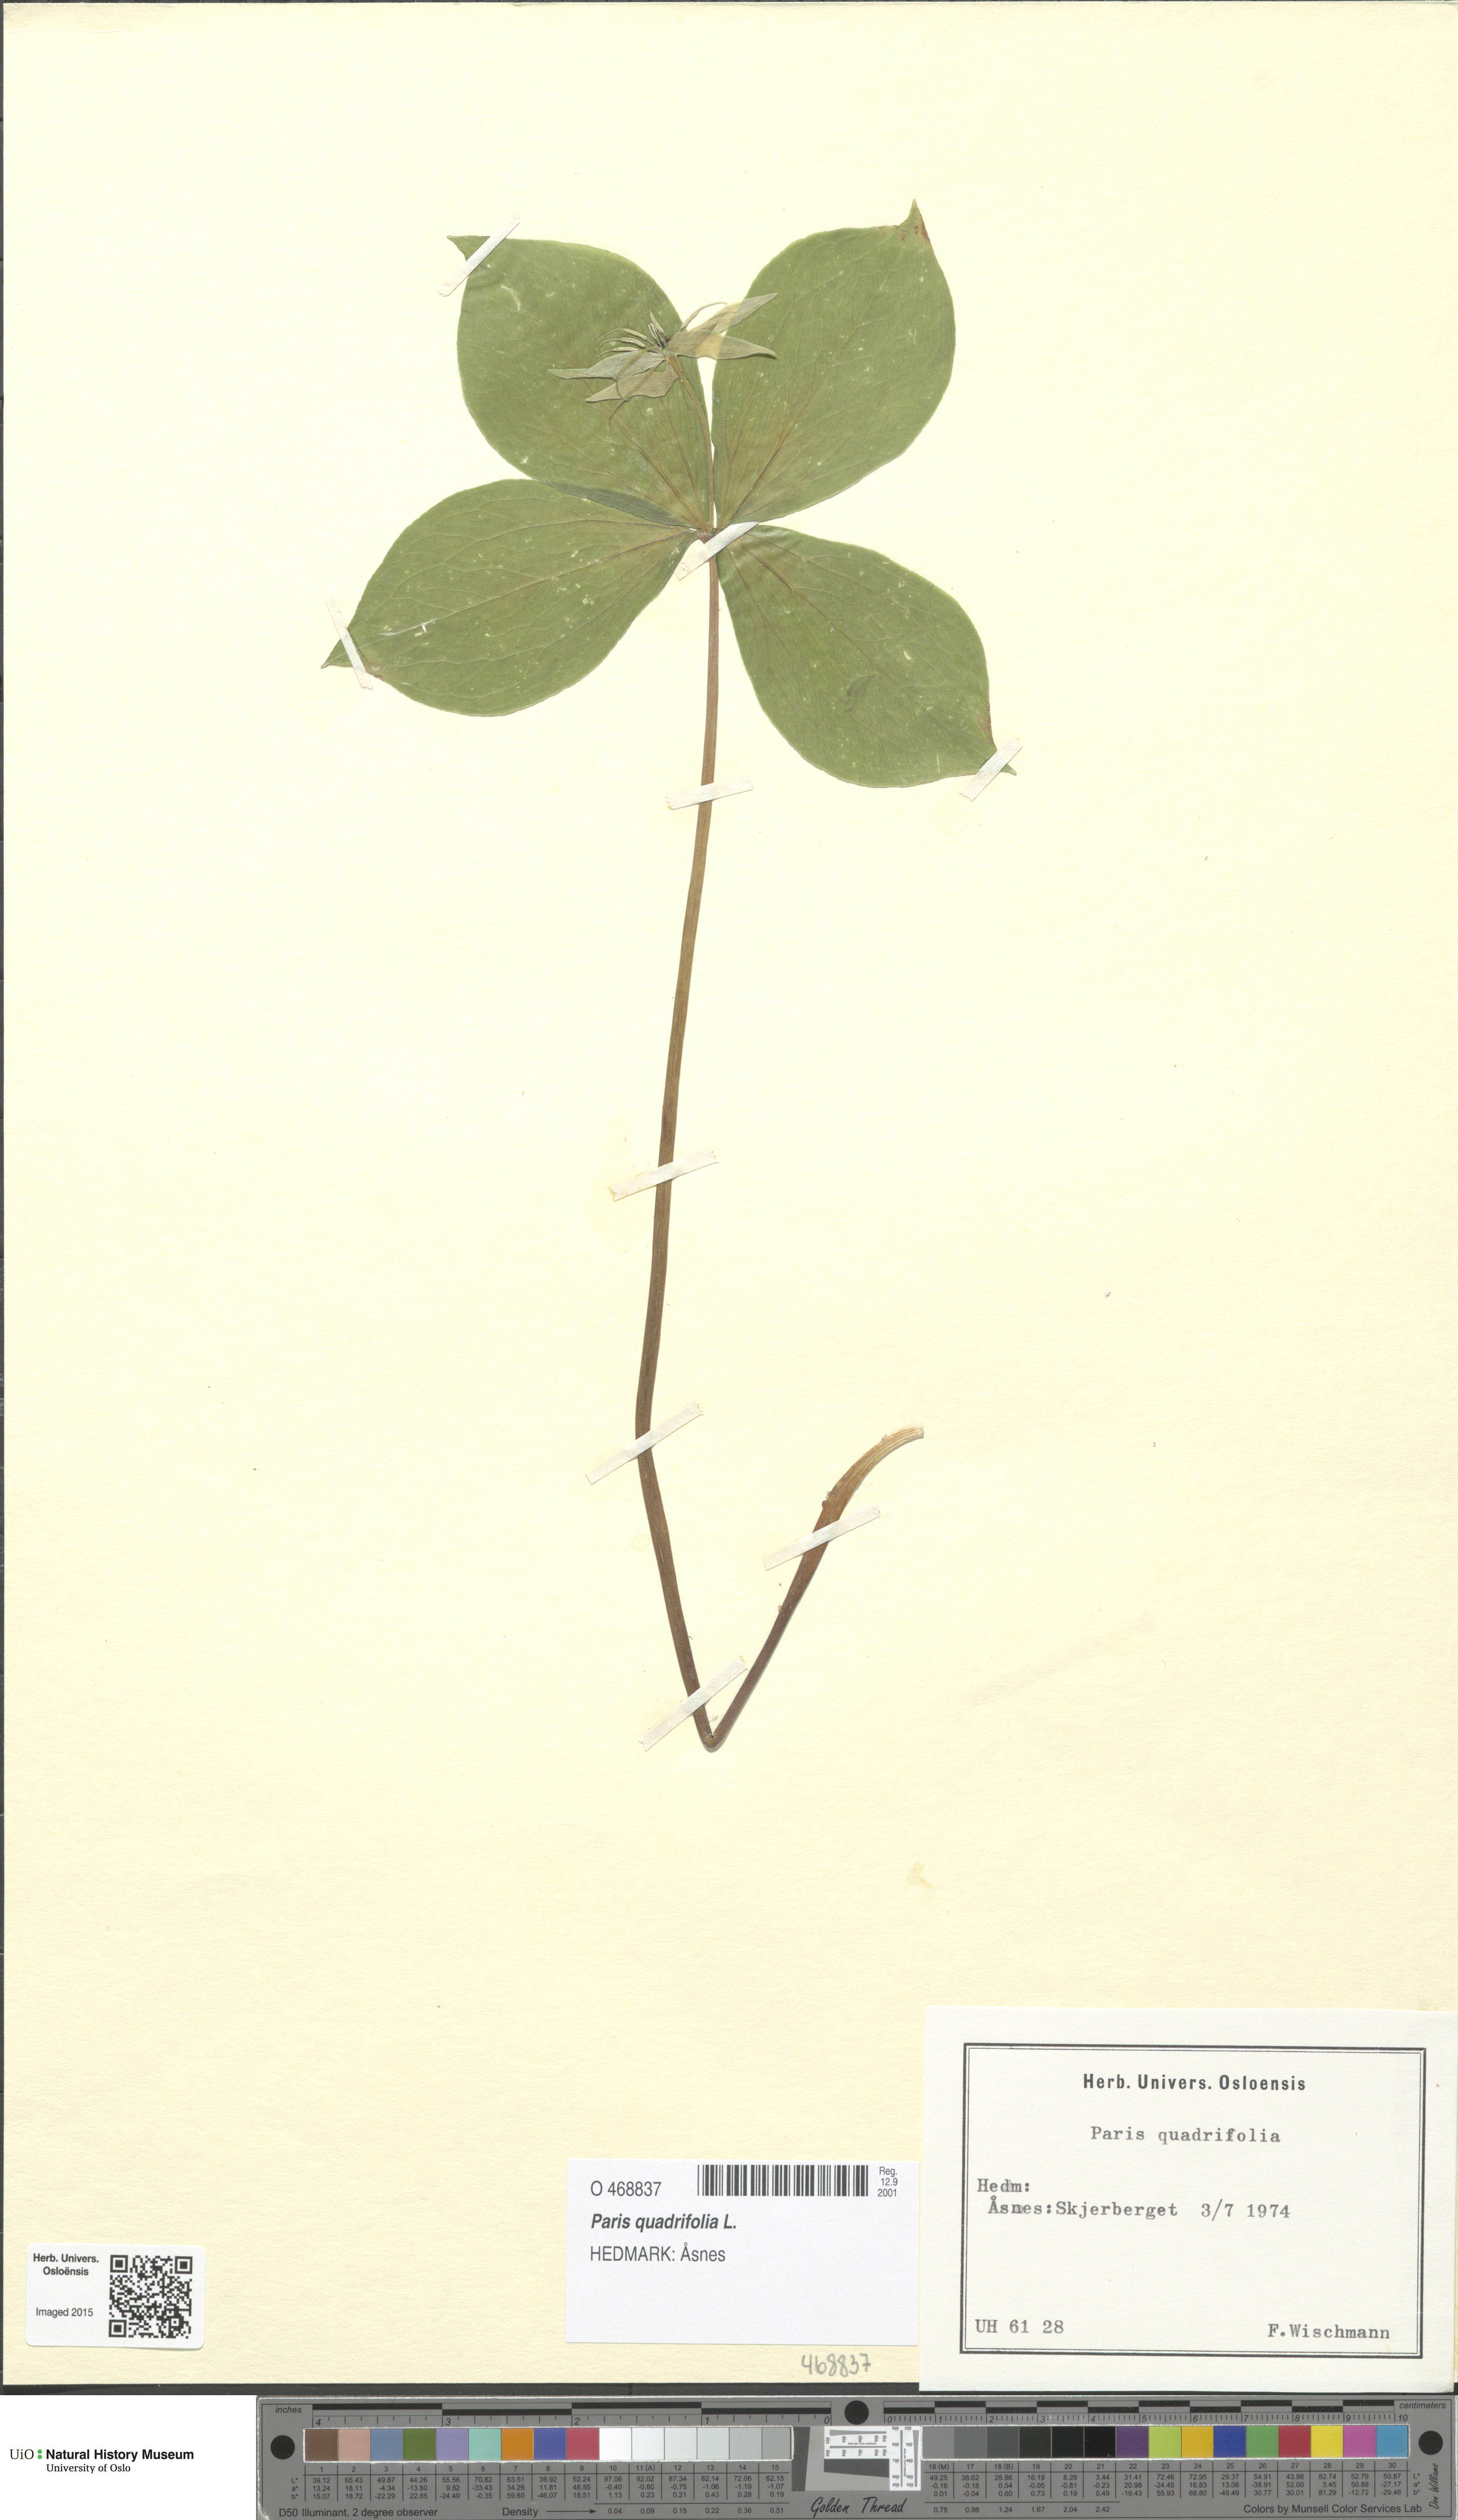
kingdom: Plantae
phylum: Tracheophyta
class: Liliopsida
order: Liliales
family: Melanthiaceae
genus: Paris
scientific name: Paris quadrifolia
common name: Herb-paris
